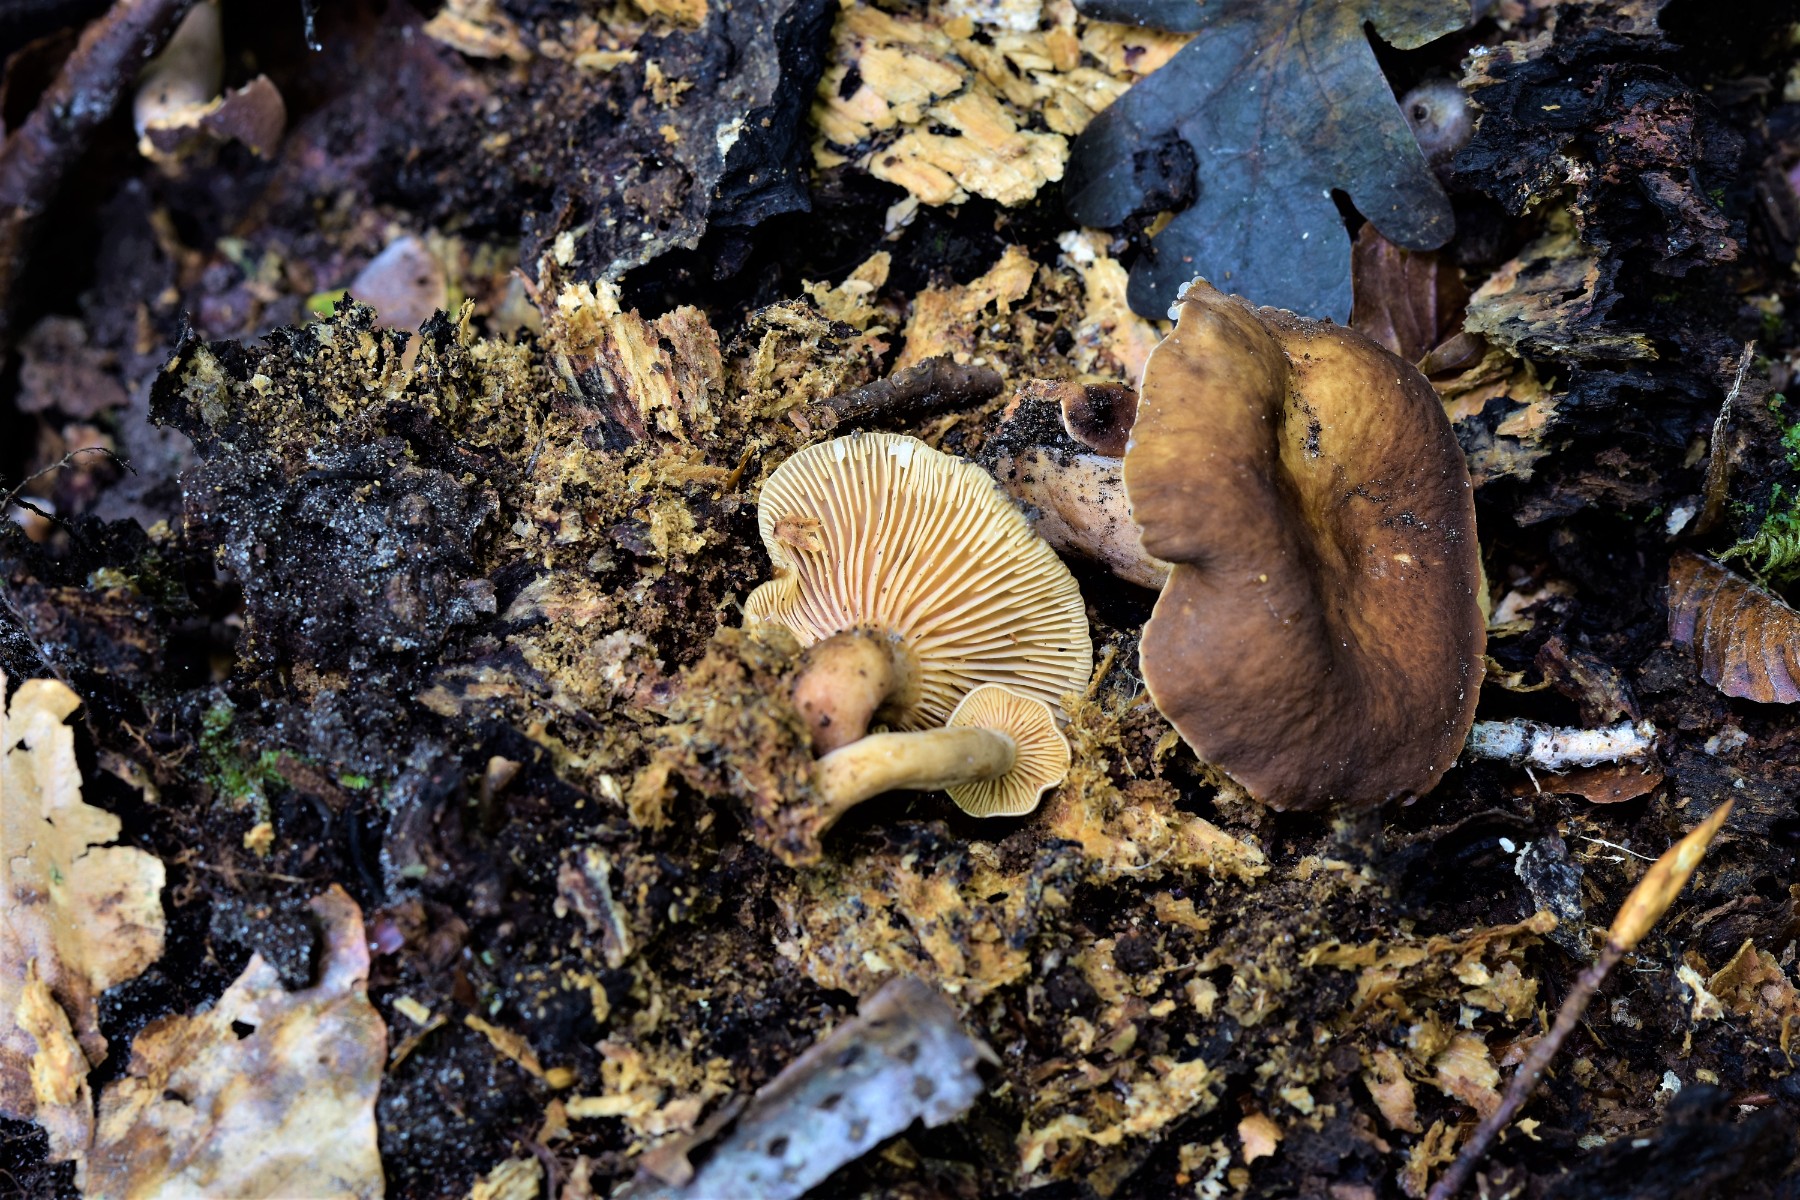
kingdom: Fungi
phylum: Basidiomycota
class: Agaricomycetes
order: Russulales
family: Russulaceae
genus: Lactarius
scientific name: Lactarius serifluus
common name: tæge-mælkehat
